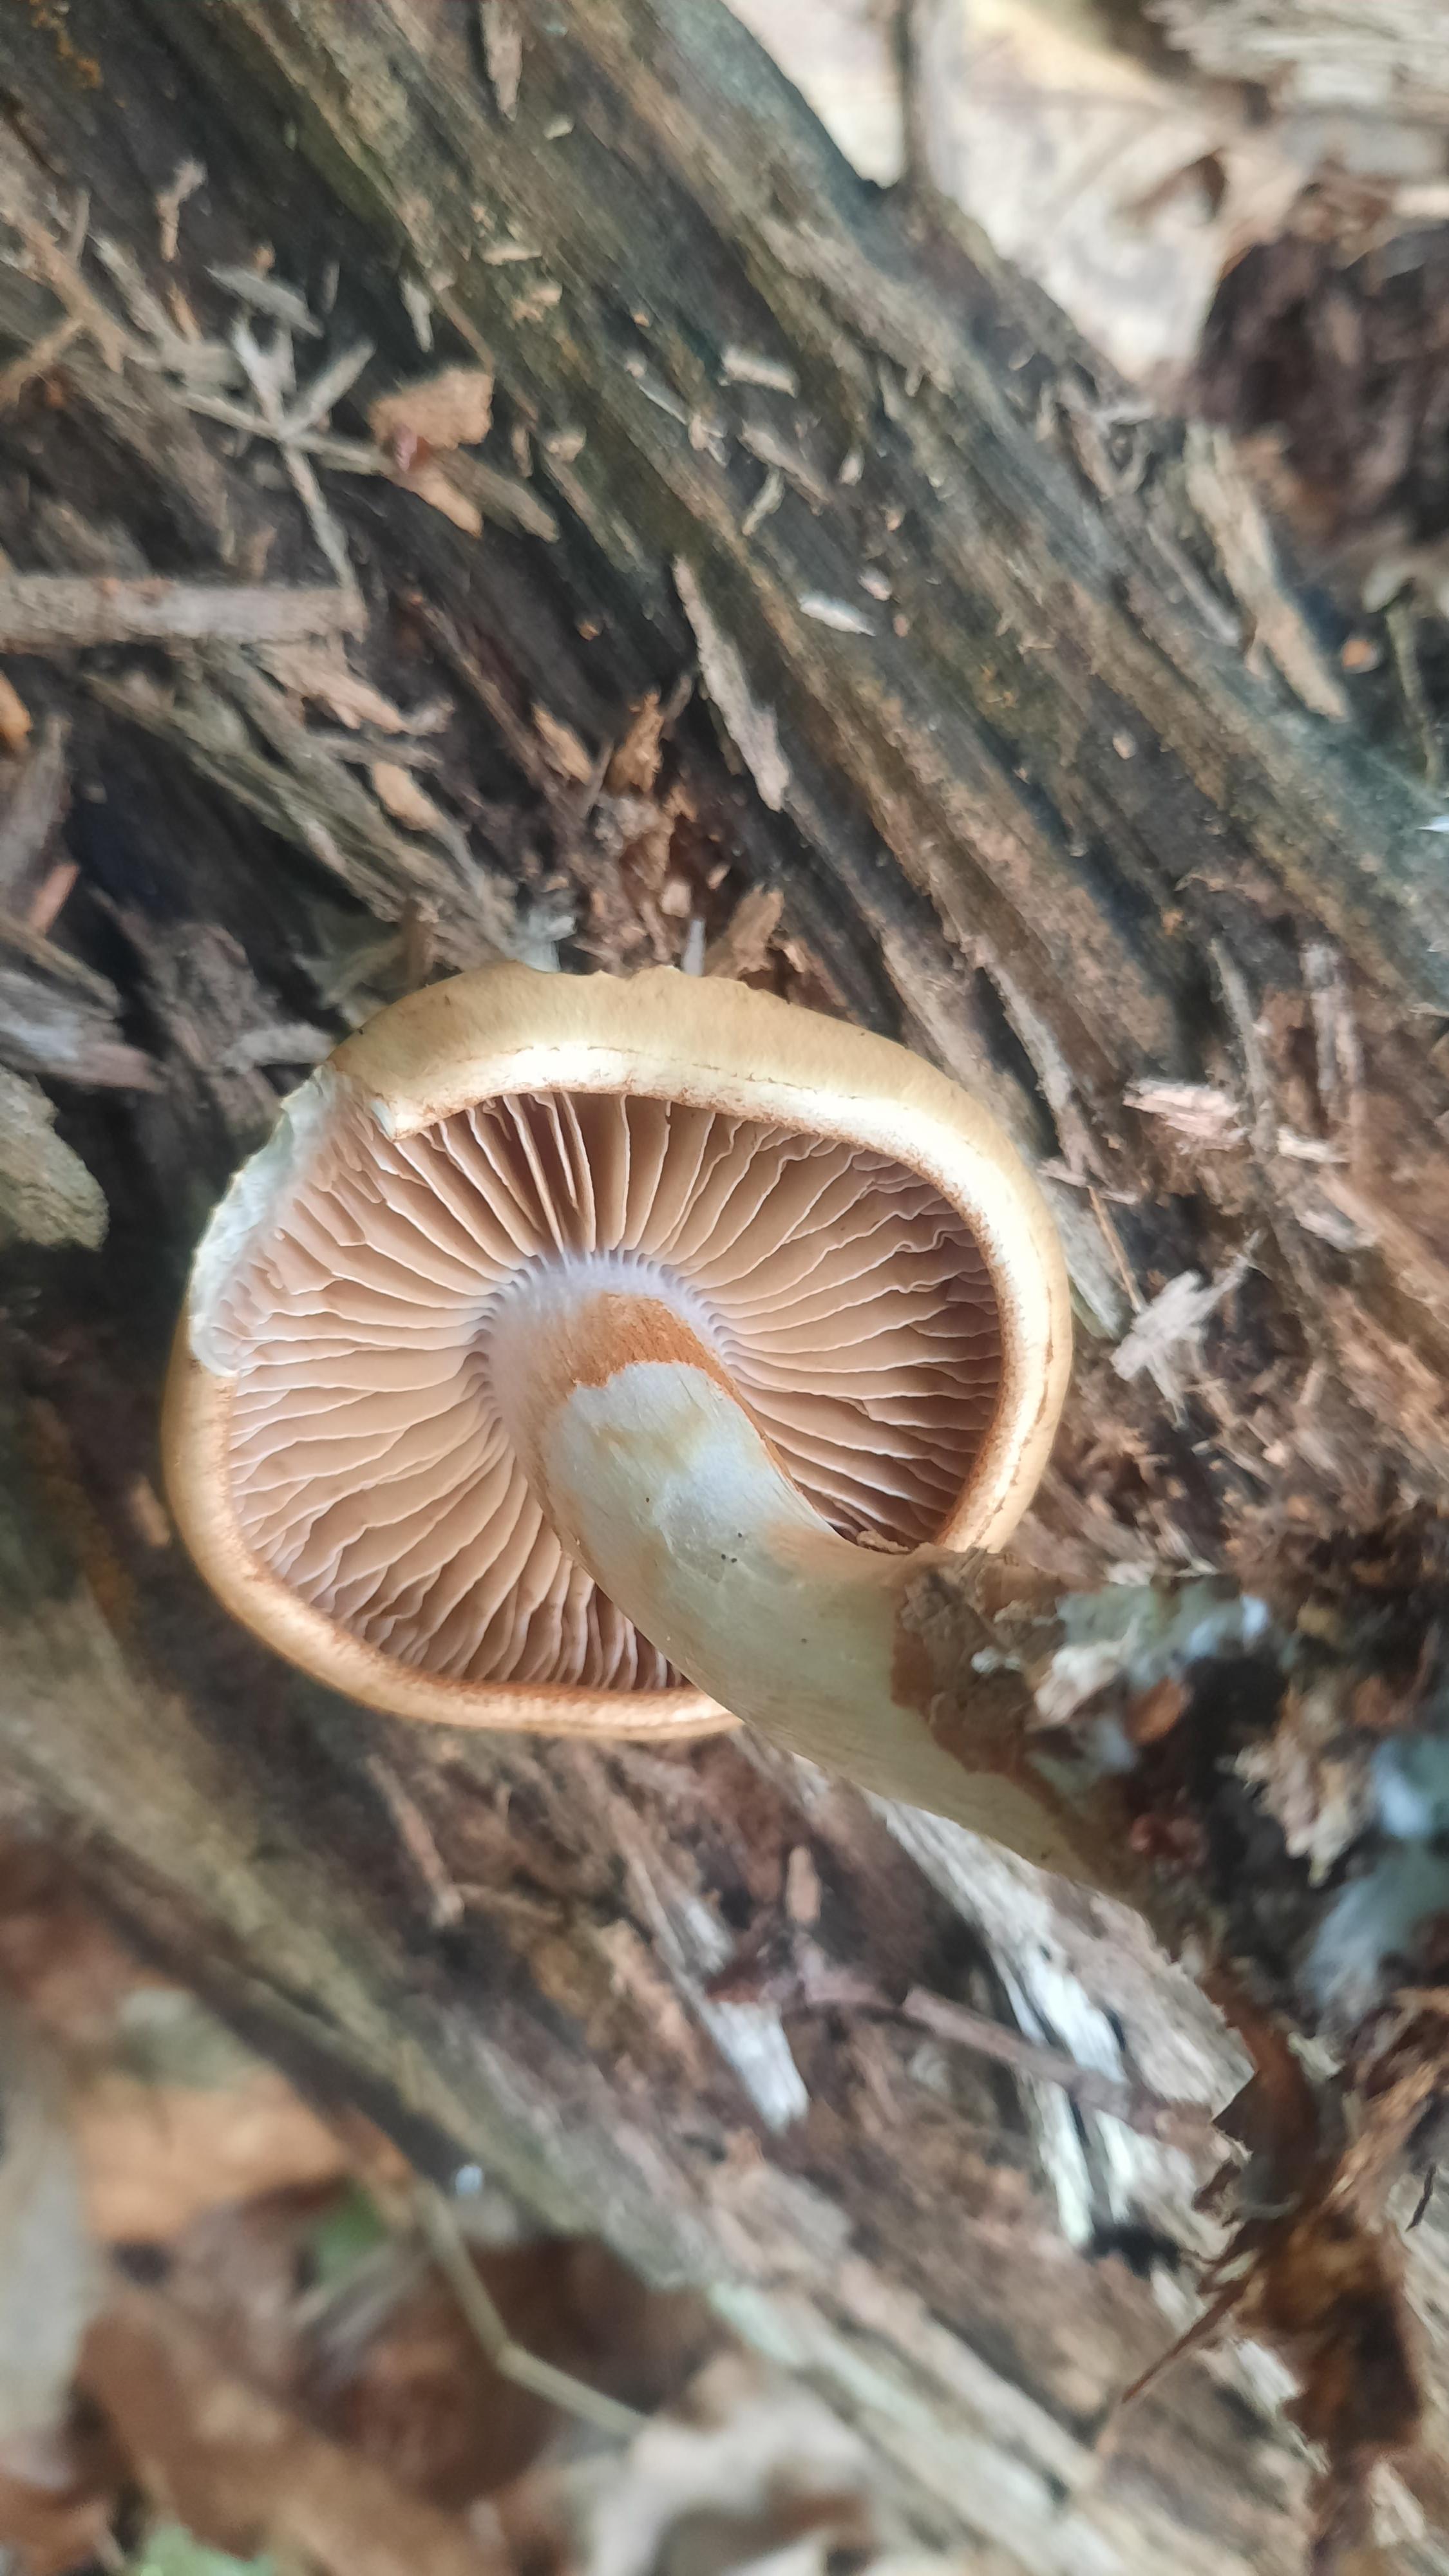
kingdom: Fungi
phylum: Basidiomycota
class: Agaricomycetes
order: Agaricales
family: Cortinariaceae
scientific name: Cortinariaceae
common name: slørhatfamilien
